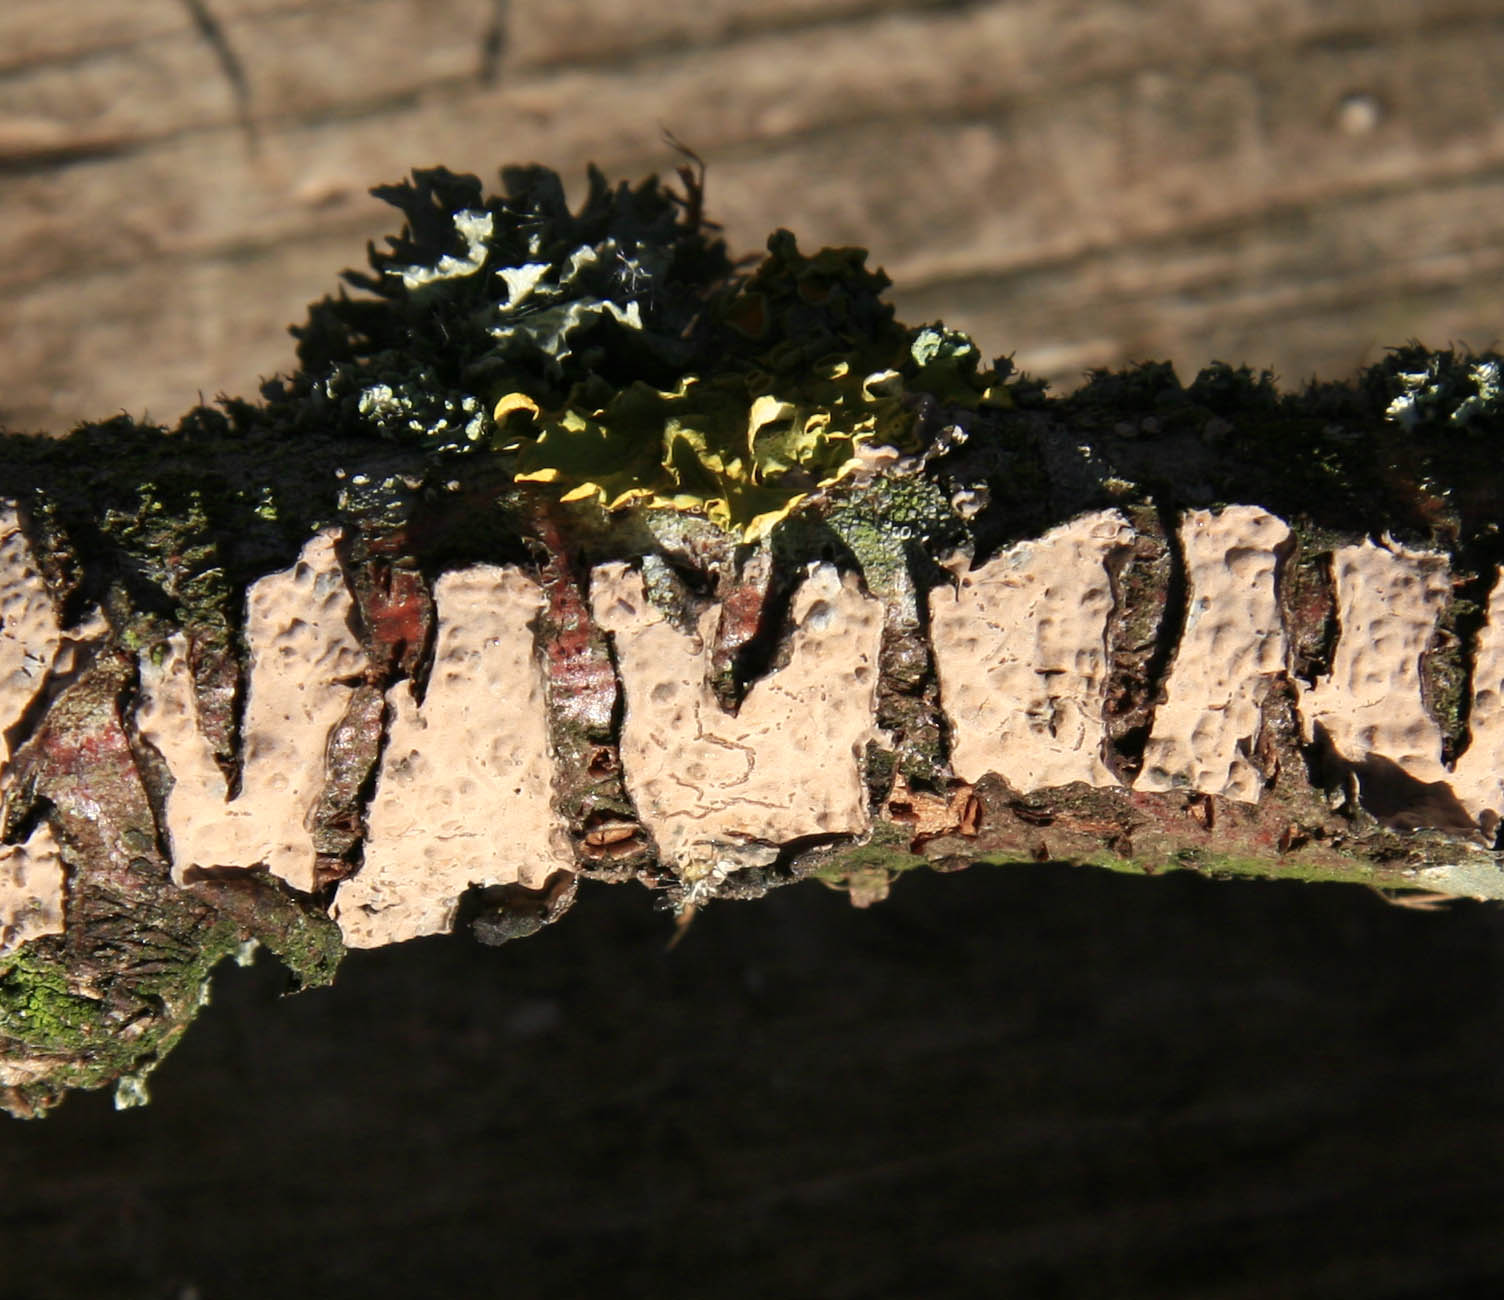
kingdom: Fungi
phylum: Basidiomycota
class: Agaricomycetes
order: Russulales
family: Peniophoraceae
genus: Peniophora
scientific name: Peniophora rufomarginata
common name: linde-voksskind
